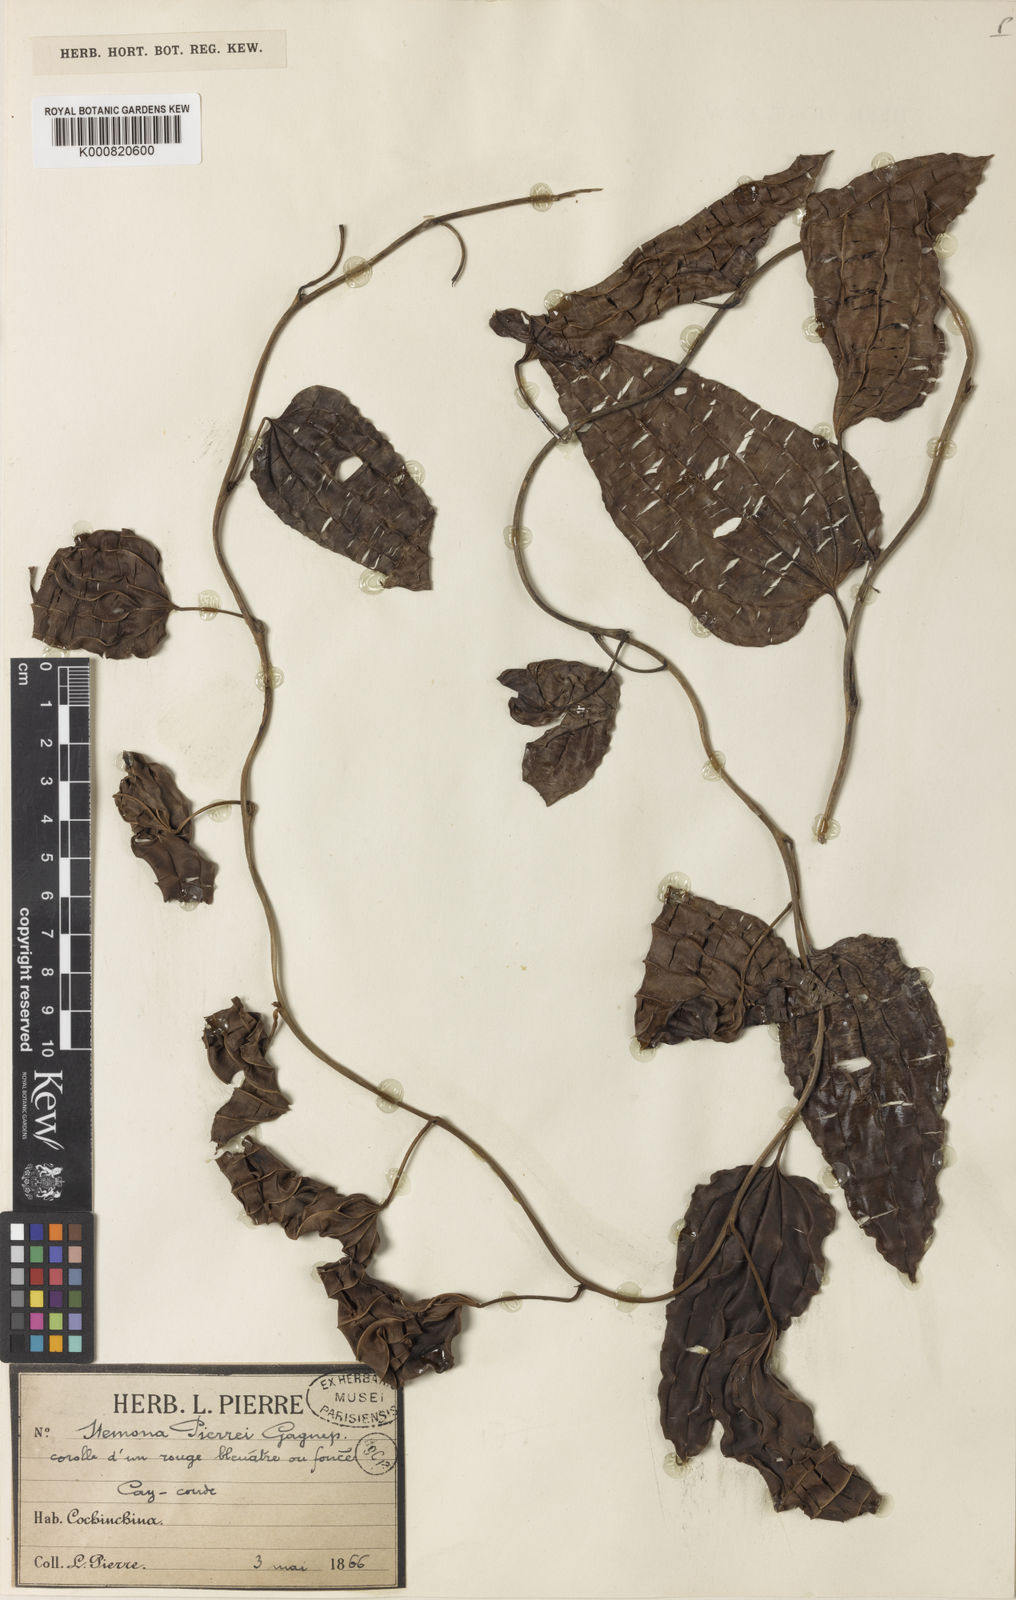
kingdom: Plantae
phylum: Tracheophyta
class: Liliopsida
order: Pandanales
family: Stemonaceae
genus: Stemona
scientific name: Stemona pierrei
